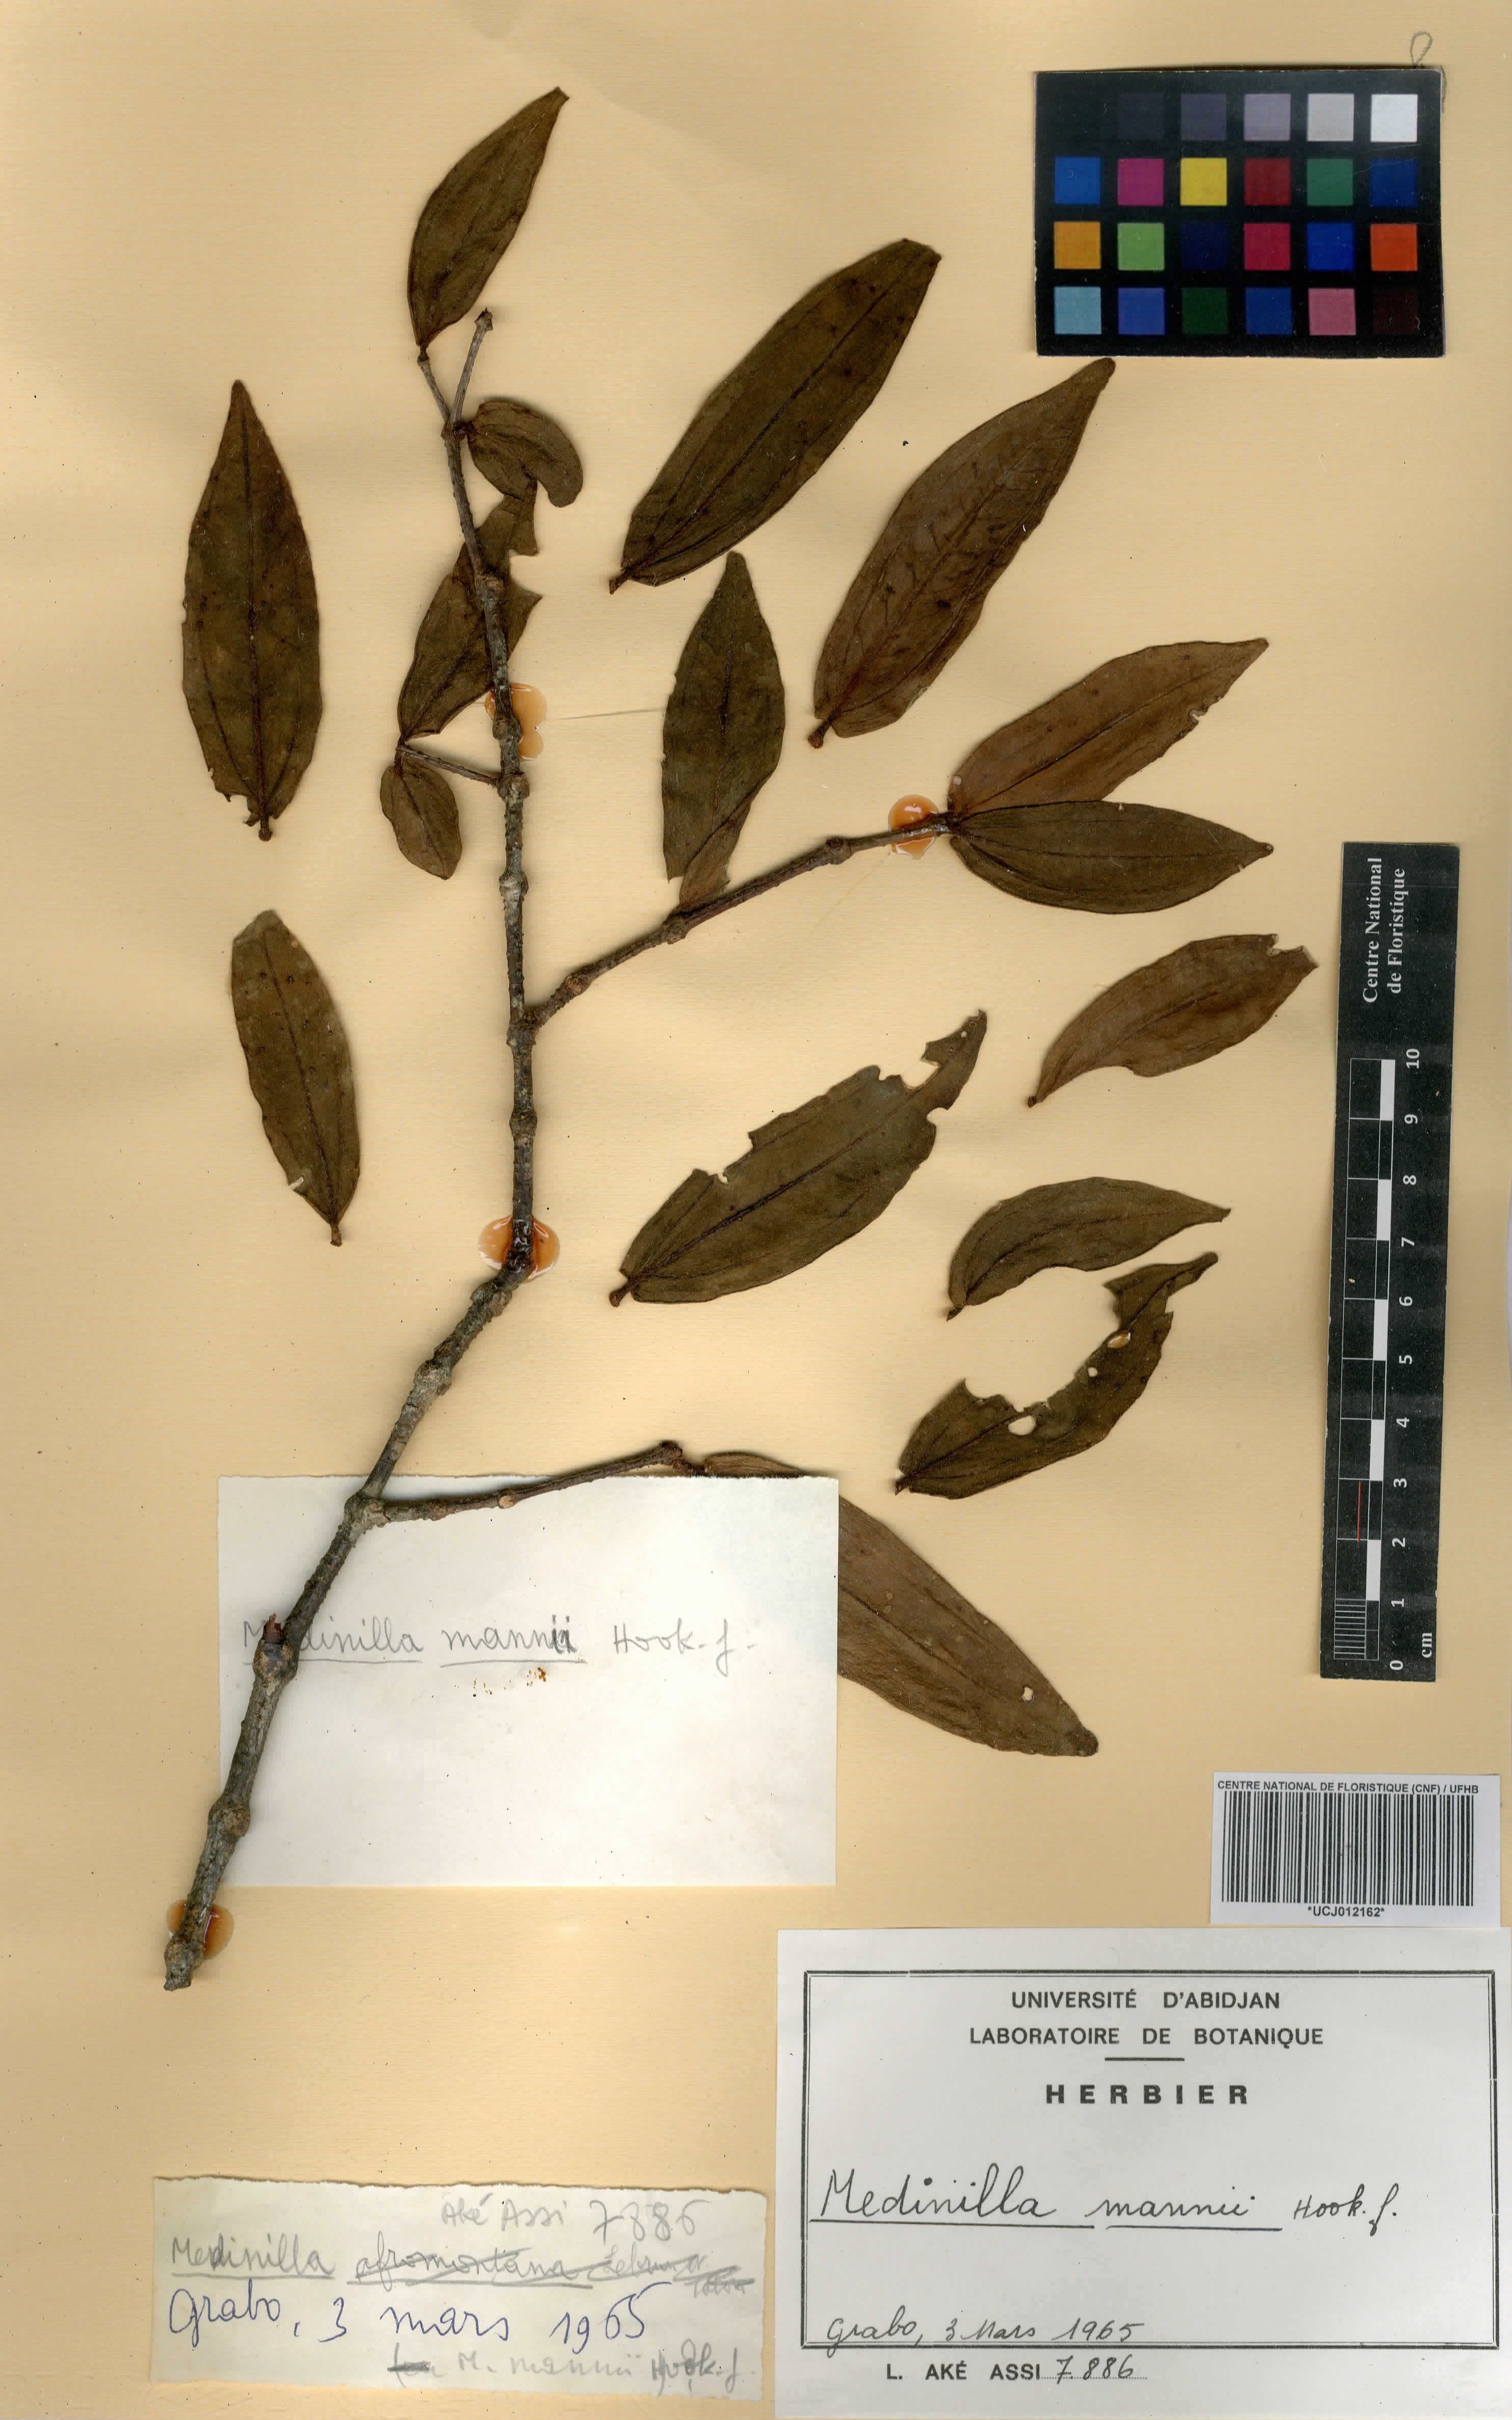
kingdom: Plantae
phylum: Tracheophyta
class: Magnoliopsida
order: Myrtales
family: Melastomataceae
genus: Medinilla
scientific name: Medinilla mannii
